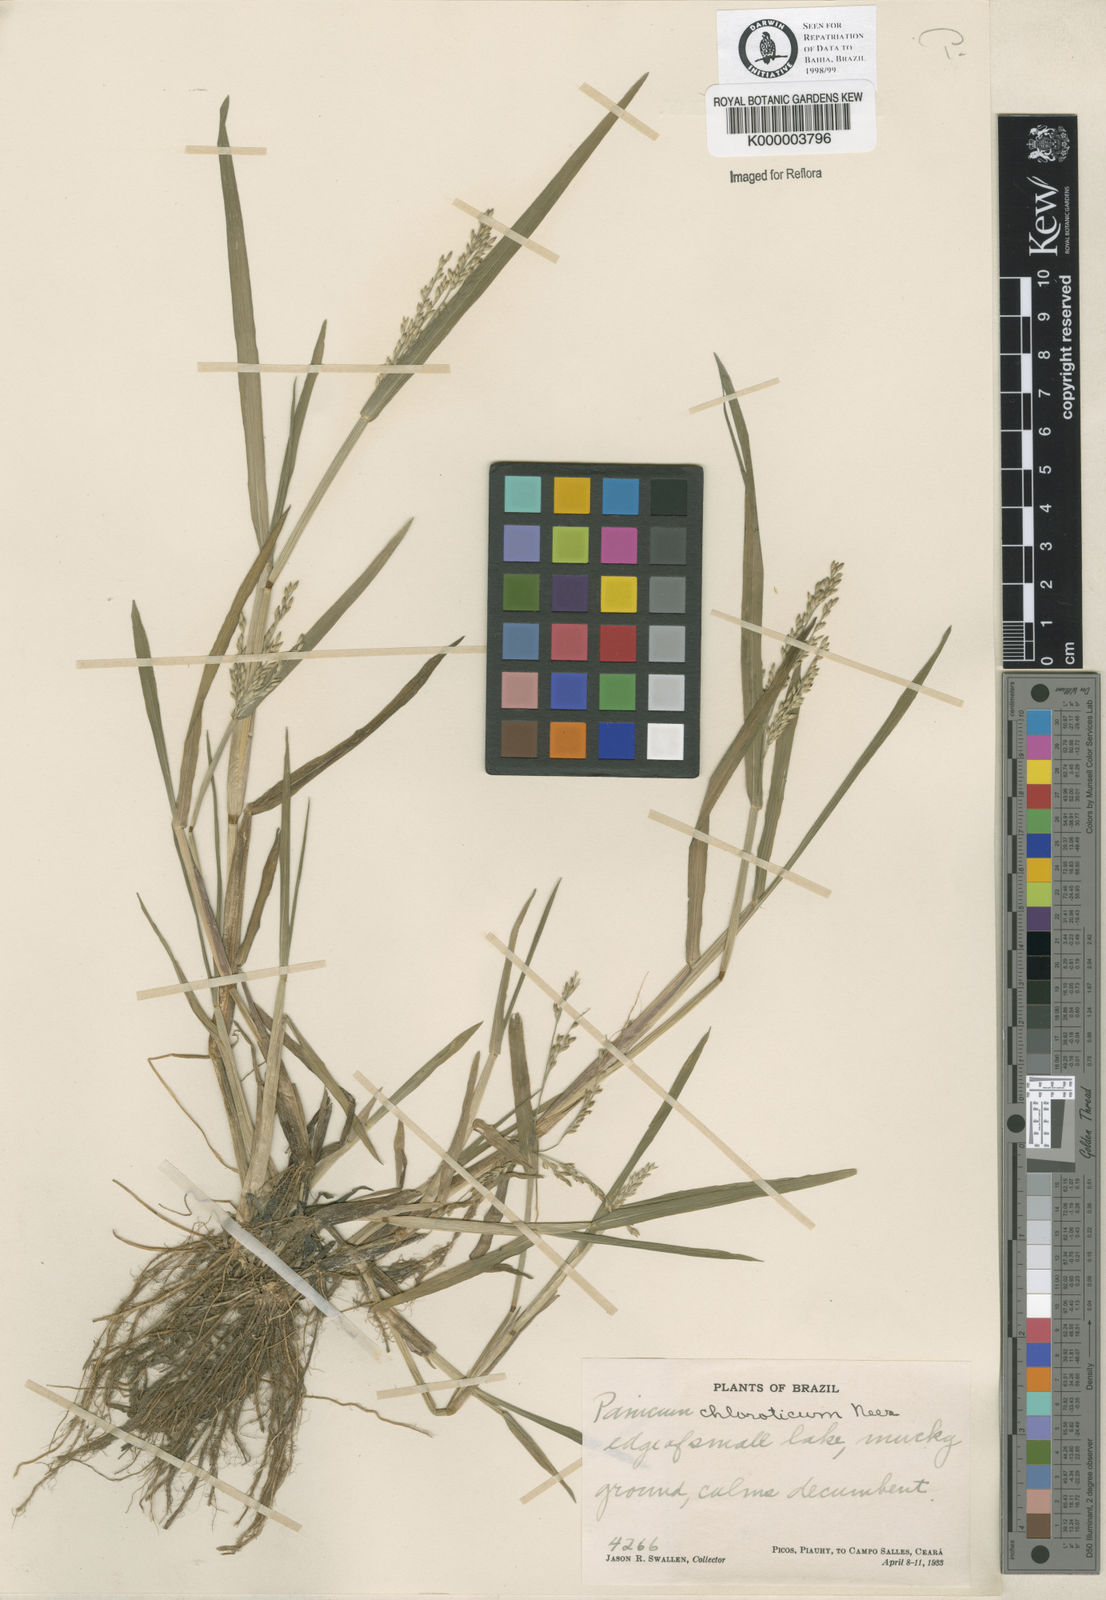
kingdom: Plantae
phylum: Tracheophyta
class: Liliopsida
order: Poales
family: Poaceae
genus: Panicum
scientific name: Panicum dichotomiflorum
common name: Autumn millet
